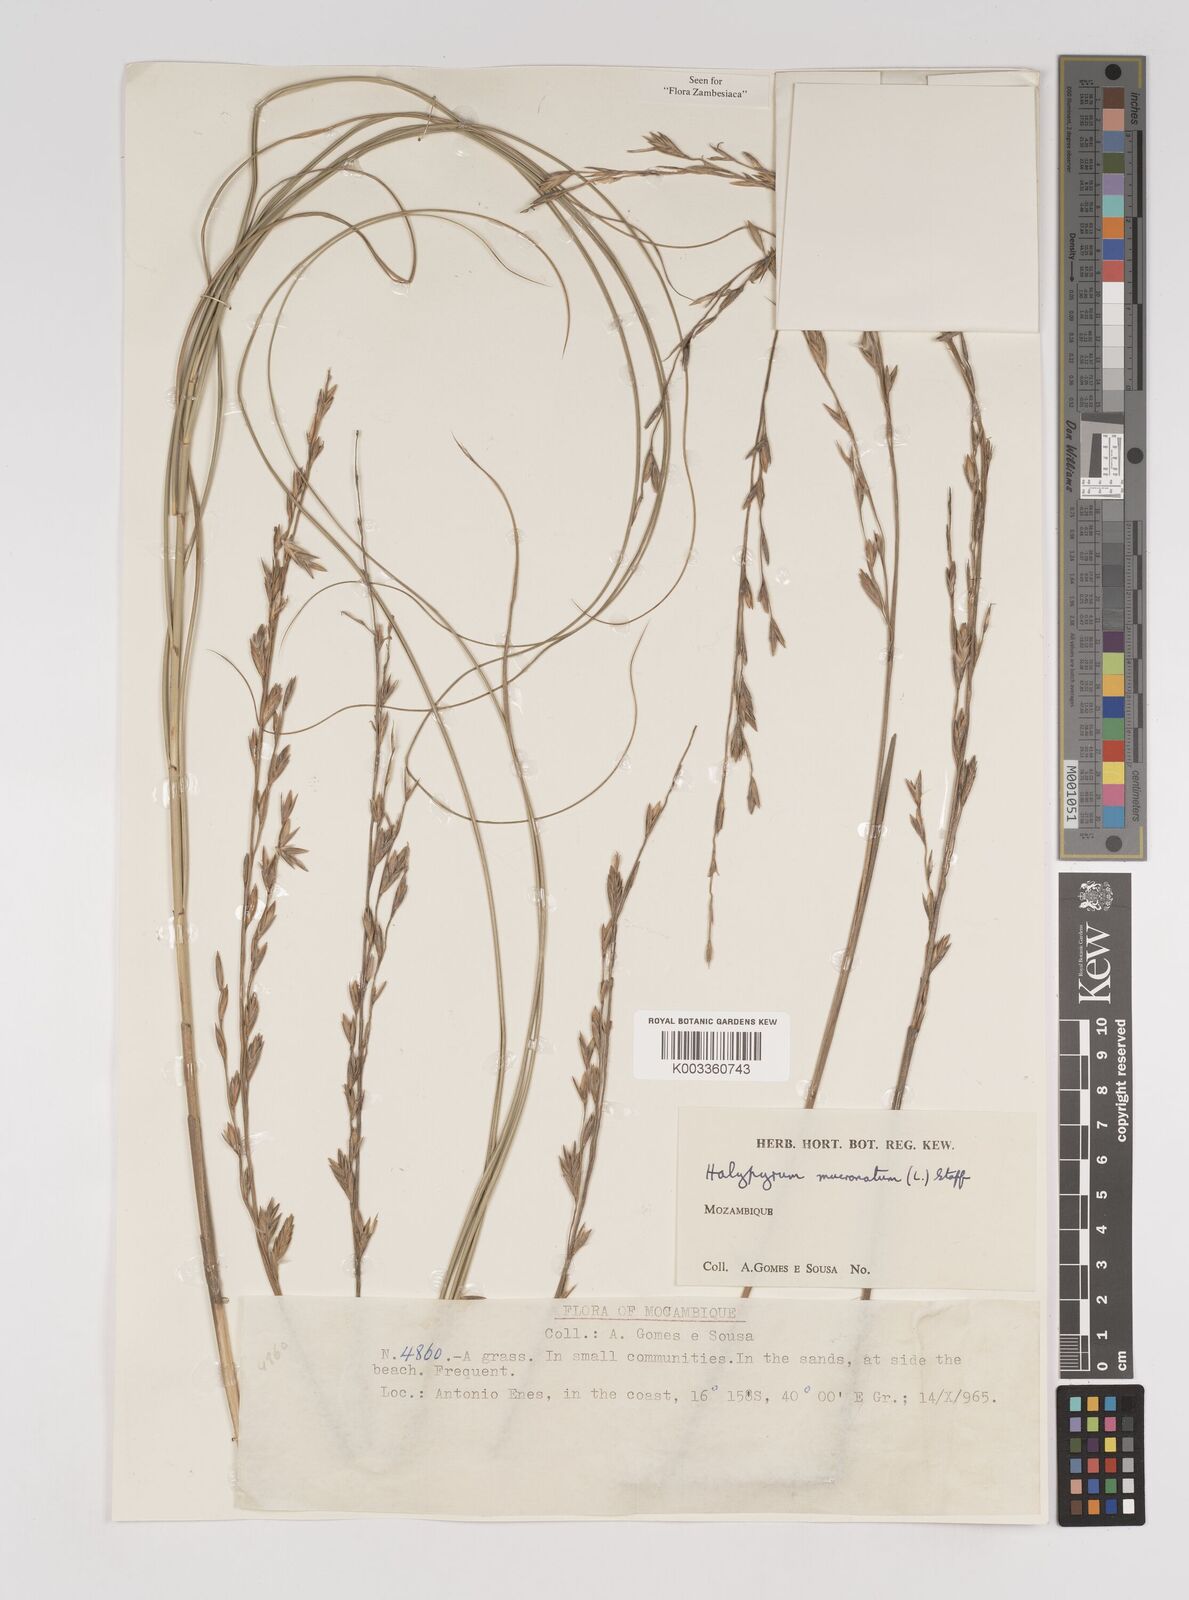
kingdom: Plantae
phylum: Tracheophyta
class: Liliopsida
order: Poales
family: Poaceae
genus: Halopyrum
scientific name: Halopyrum mucronatum
